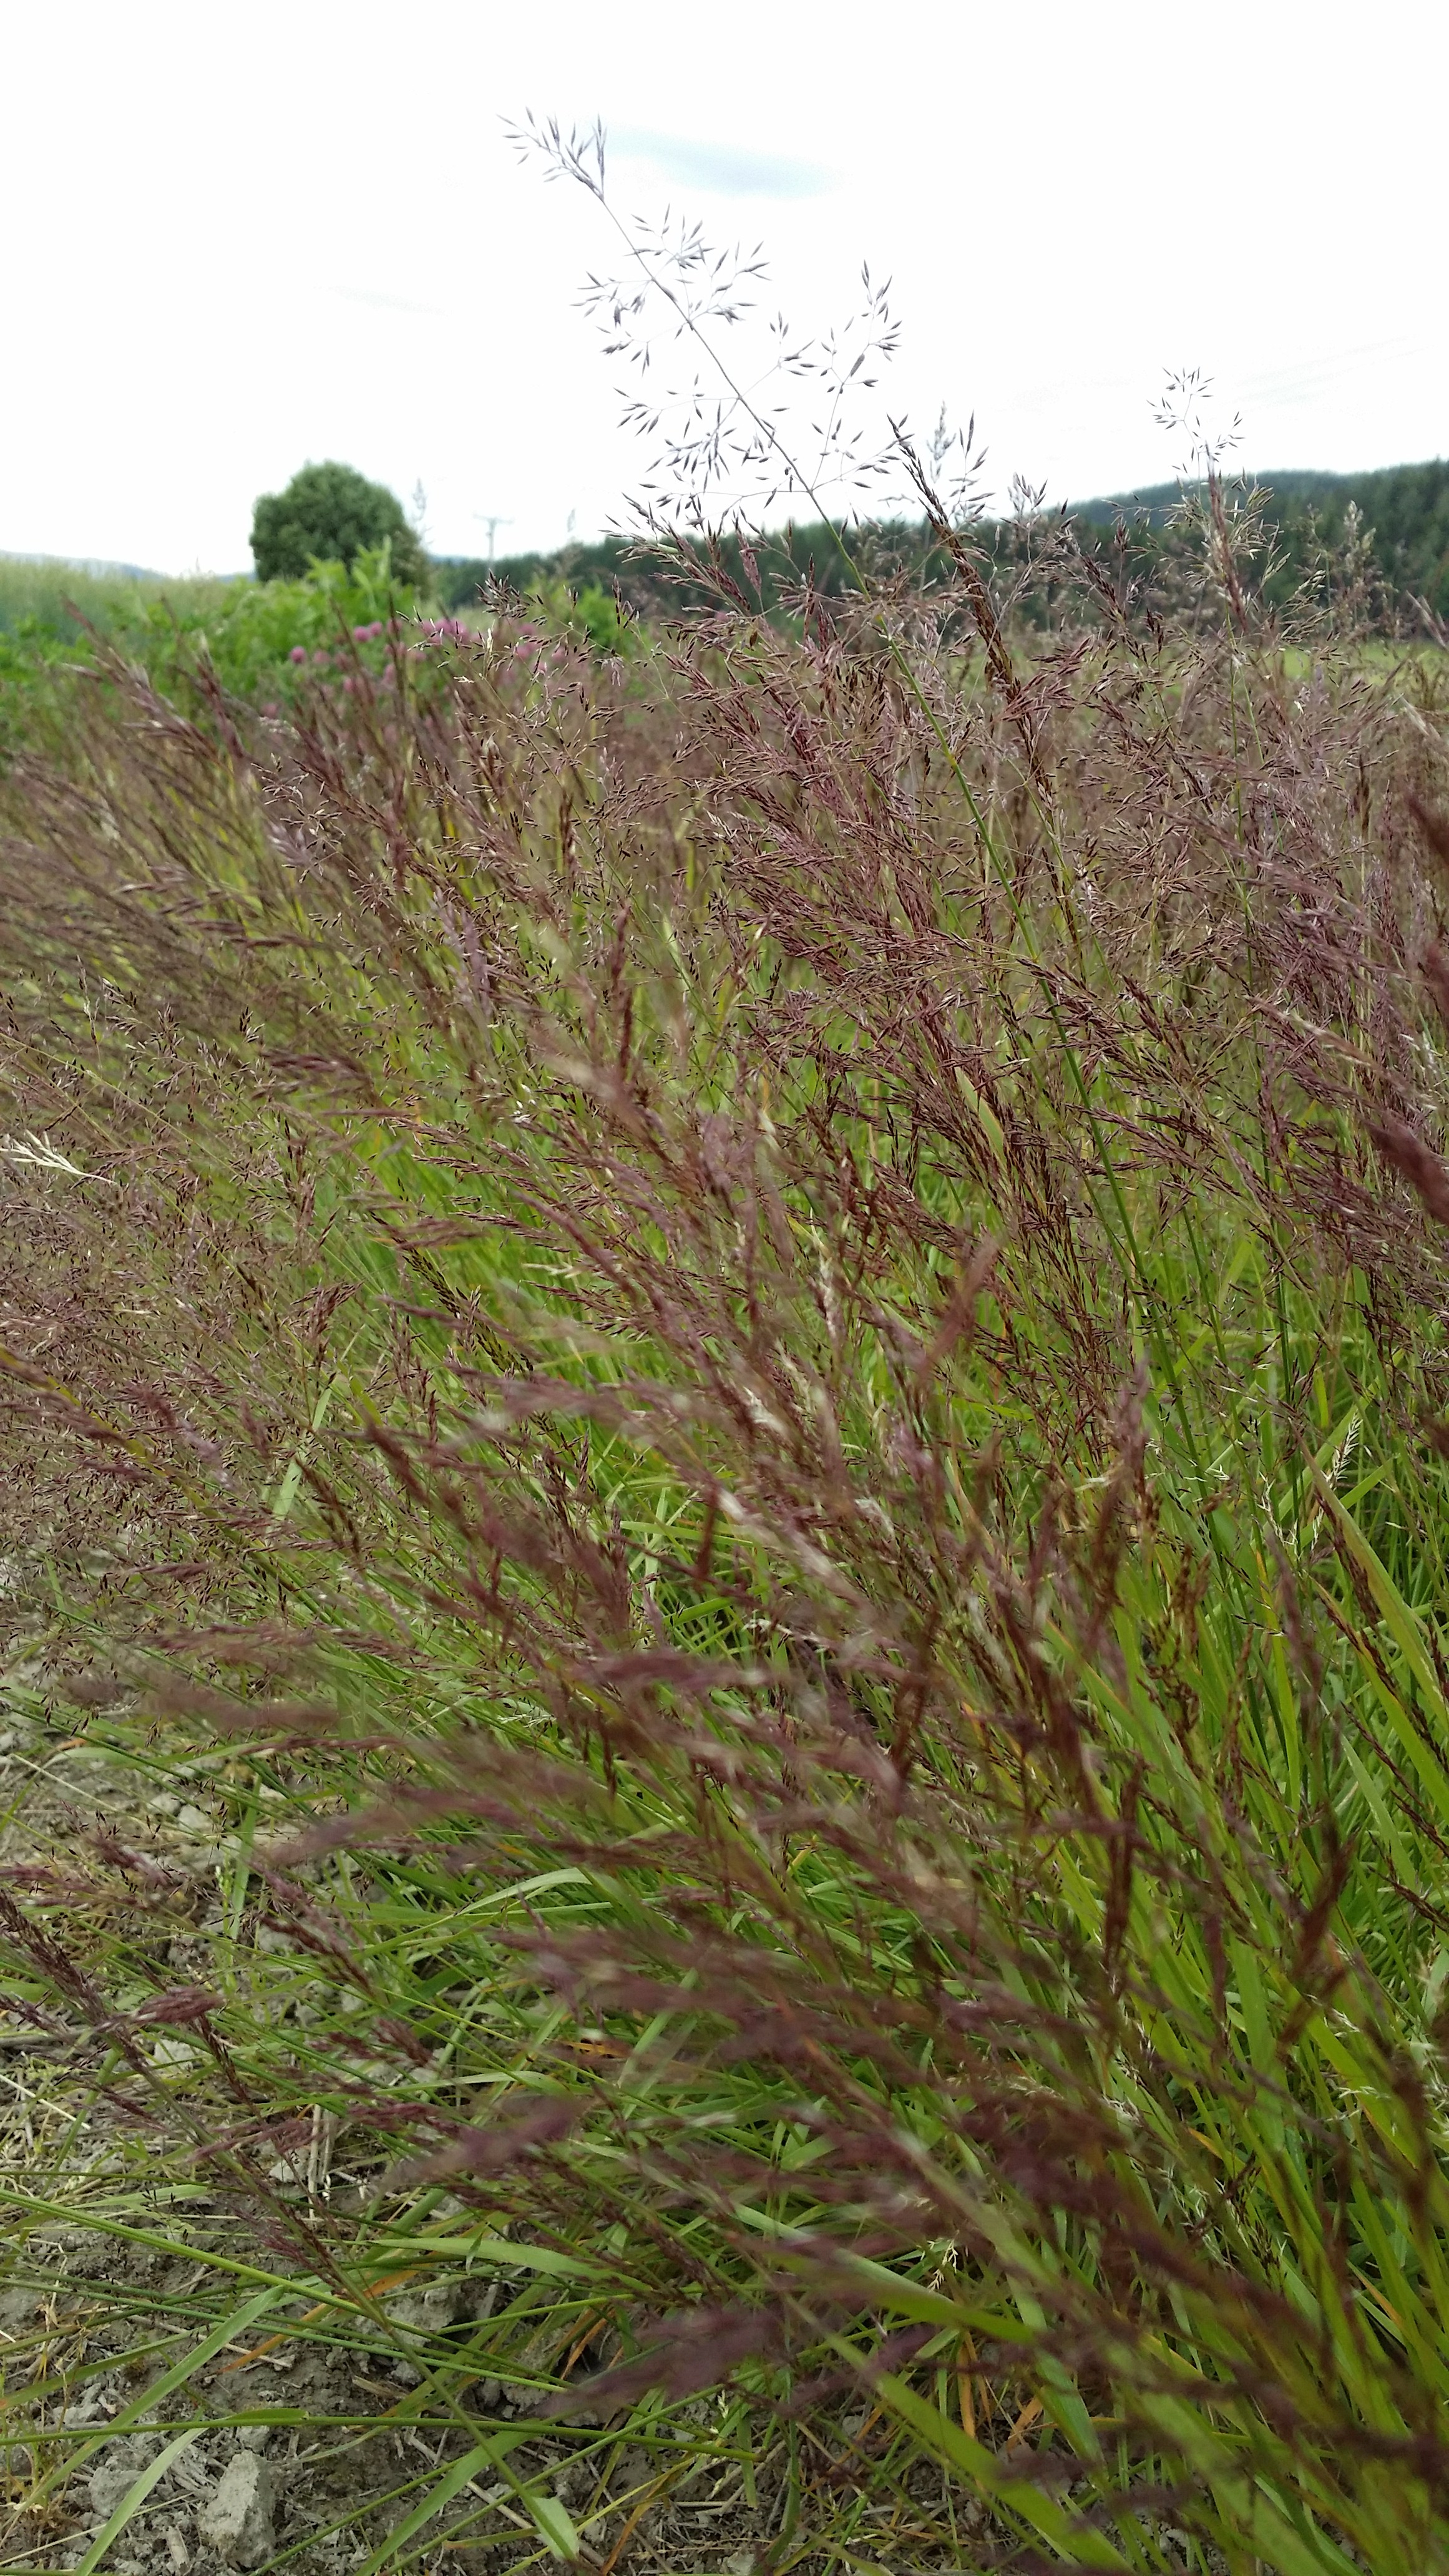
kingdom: Plantae
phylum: Tracheophyta
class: Liliopsida
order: Poales
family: Poaceae
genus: Agrostis
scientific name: Agrostis capillaris
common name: Colonial bentgrass
